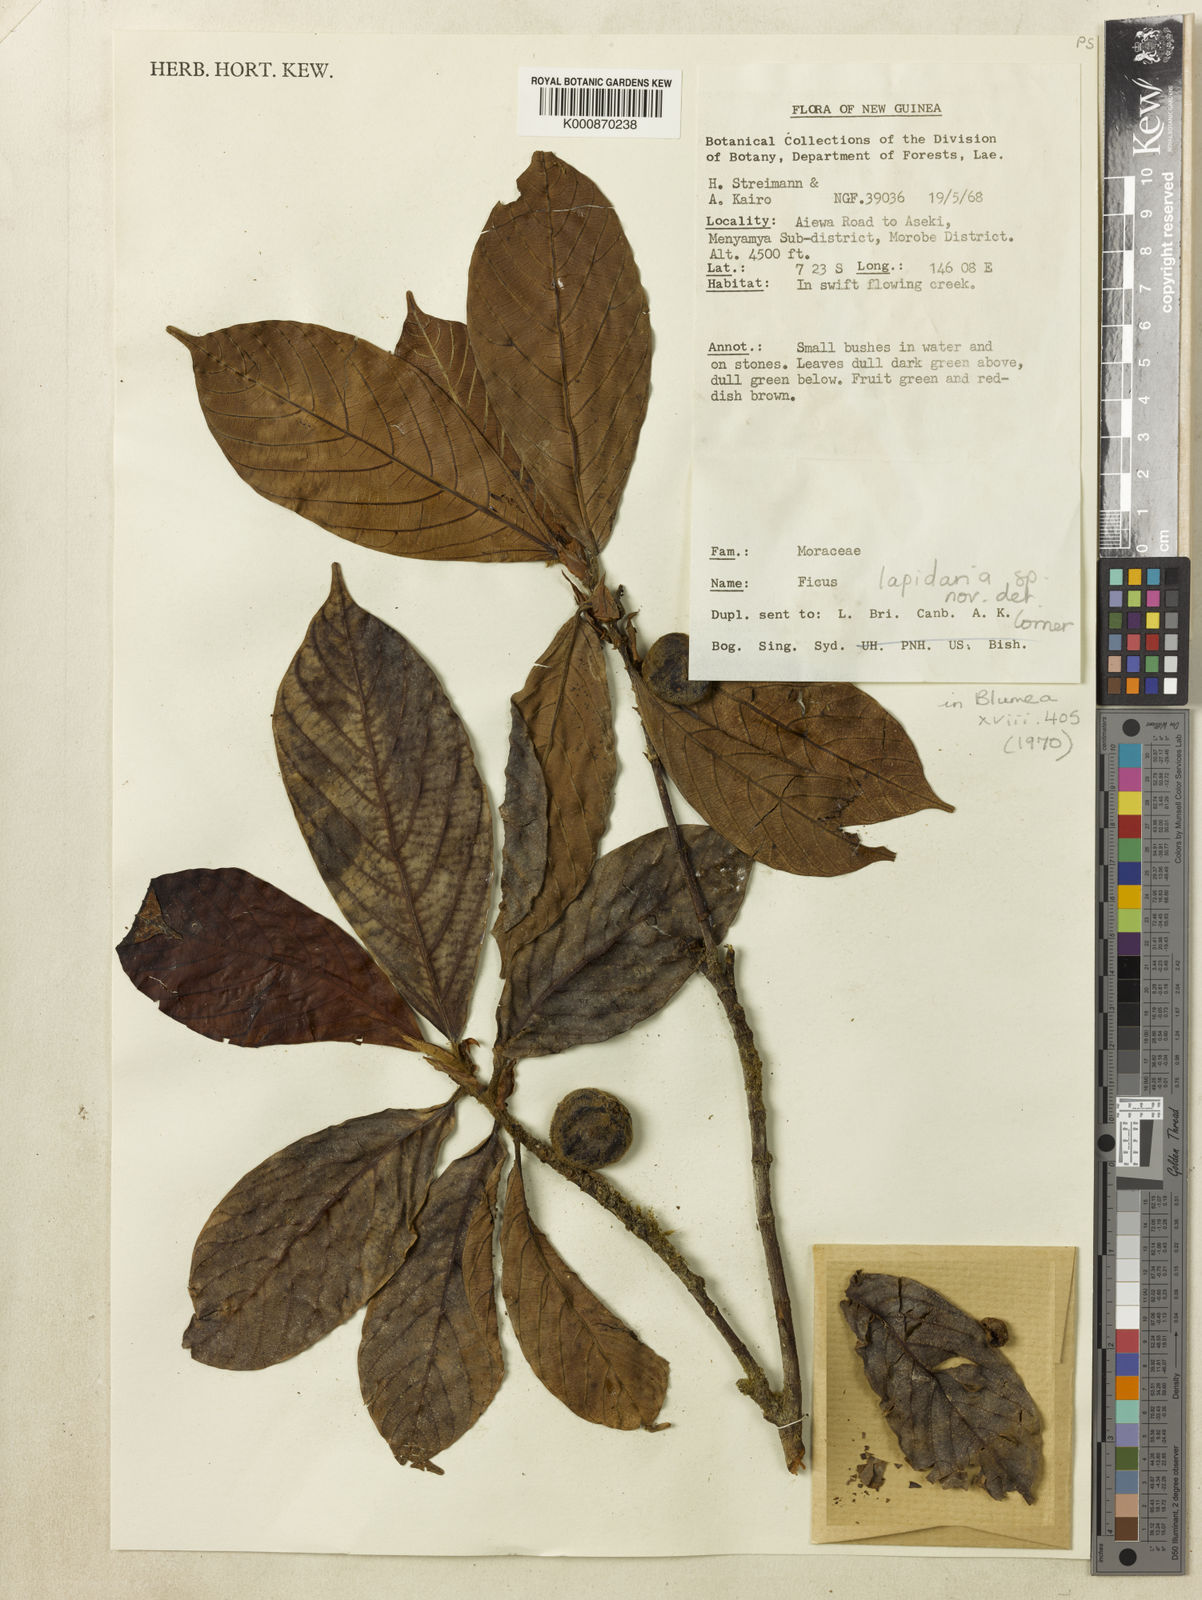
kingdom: Plantae
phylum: Tracheophyta
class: Magnoliopsida
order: Rosales
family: Moraceae
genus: Ficus
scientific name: Ficus trichocerasa
